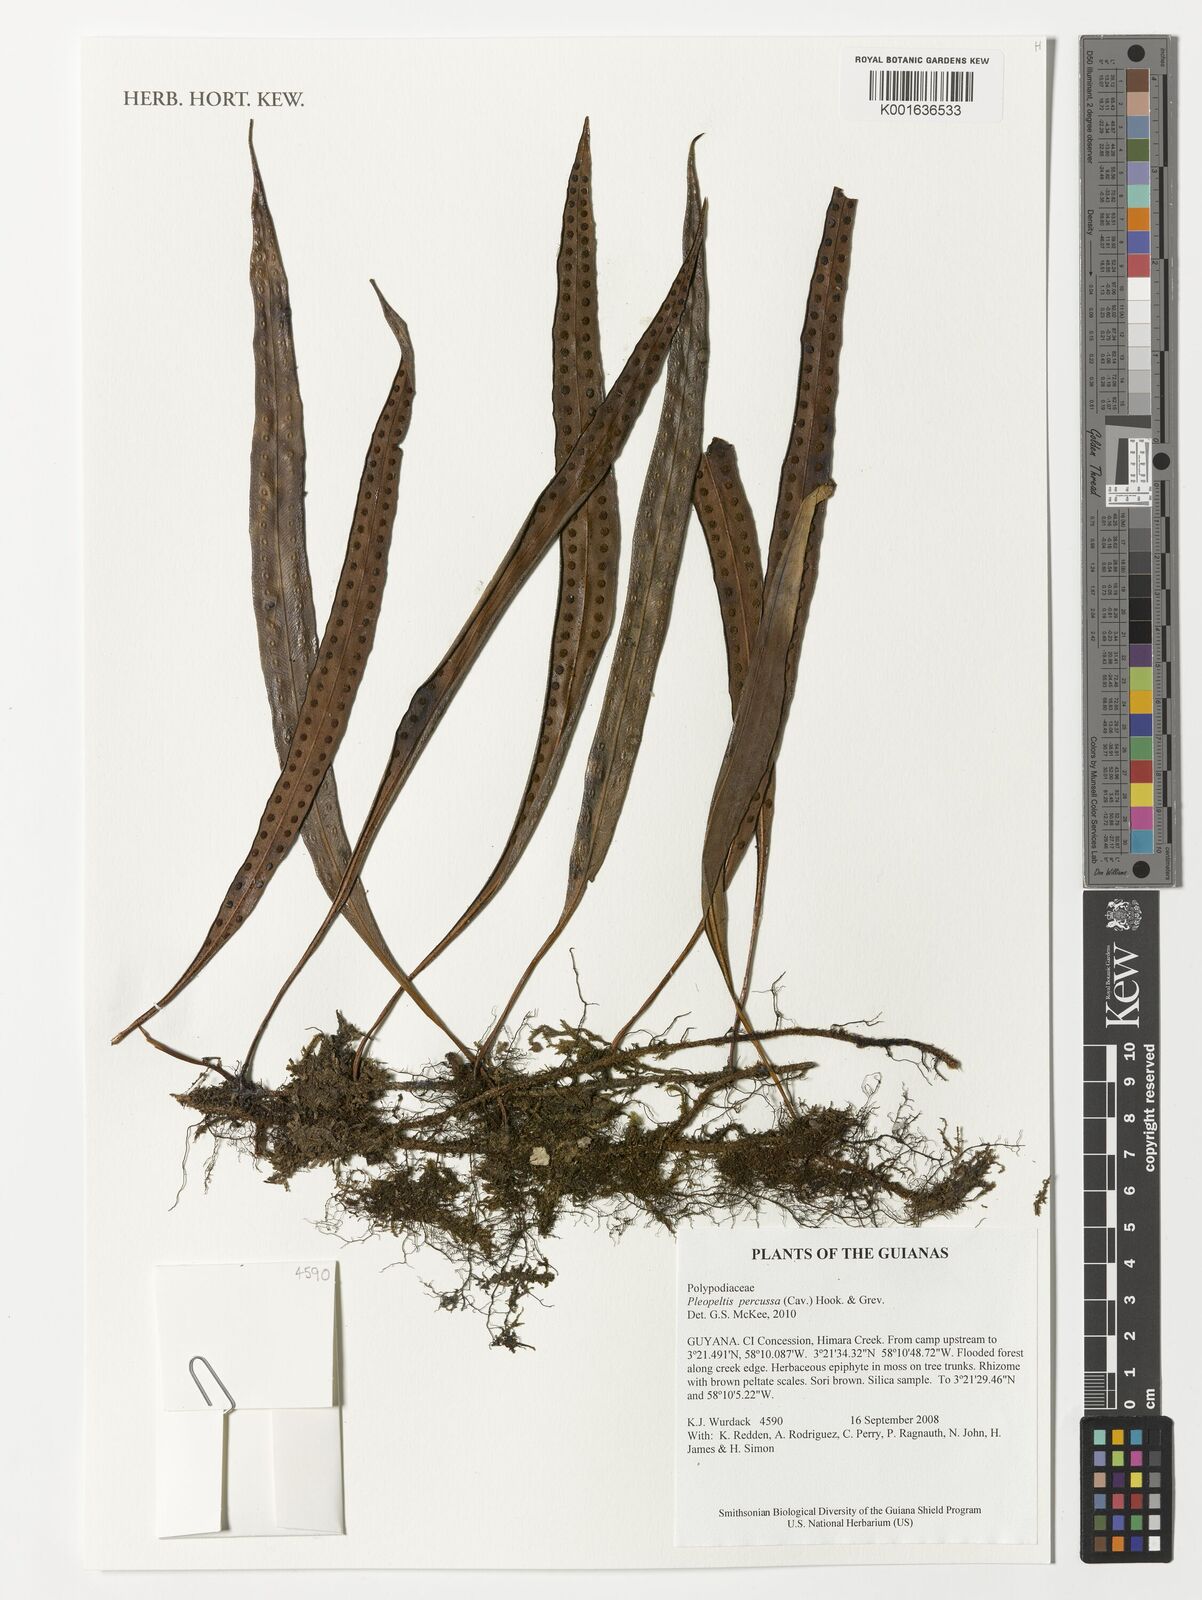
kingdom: Plantae
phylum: Tracheophyta
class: Polypodiopsida
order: Polypodiales
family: Polypodiaceae
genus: Microgramma
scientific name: Microgramma percussa
